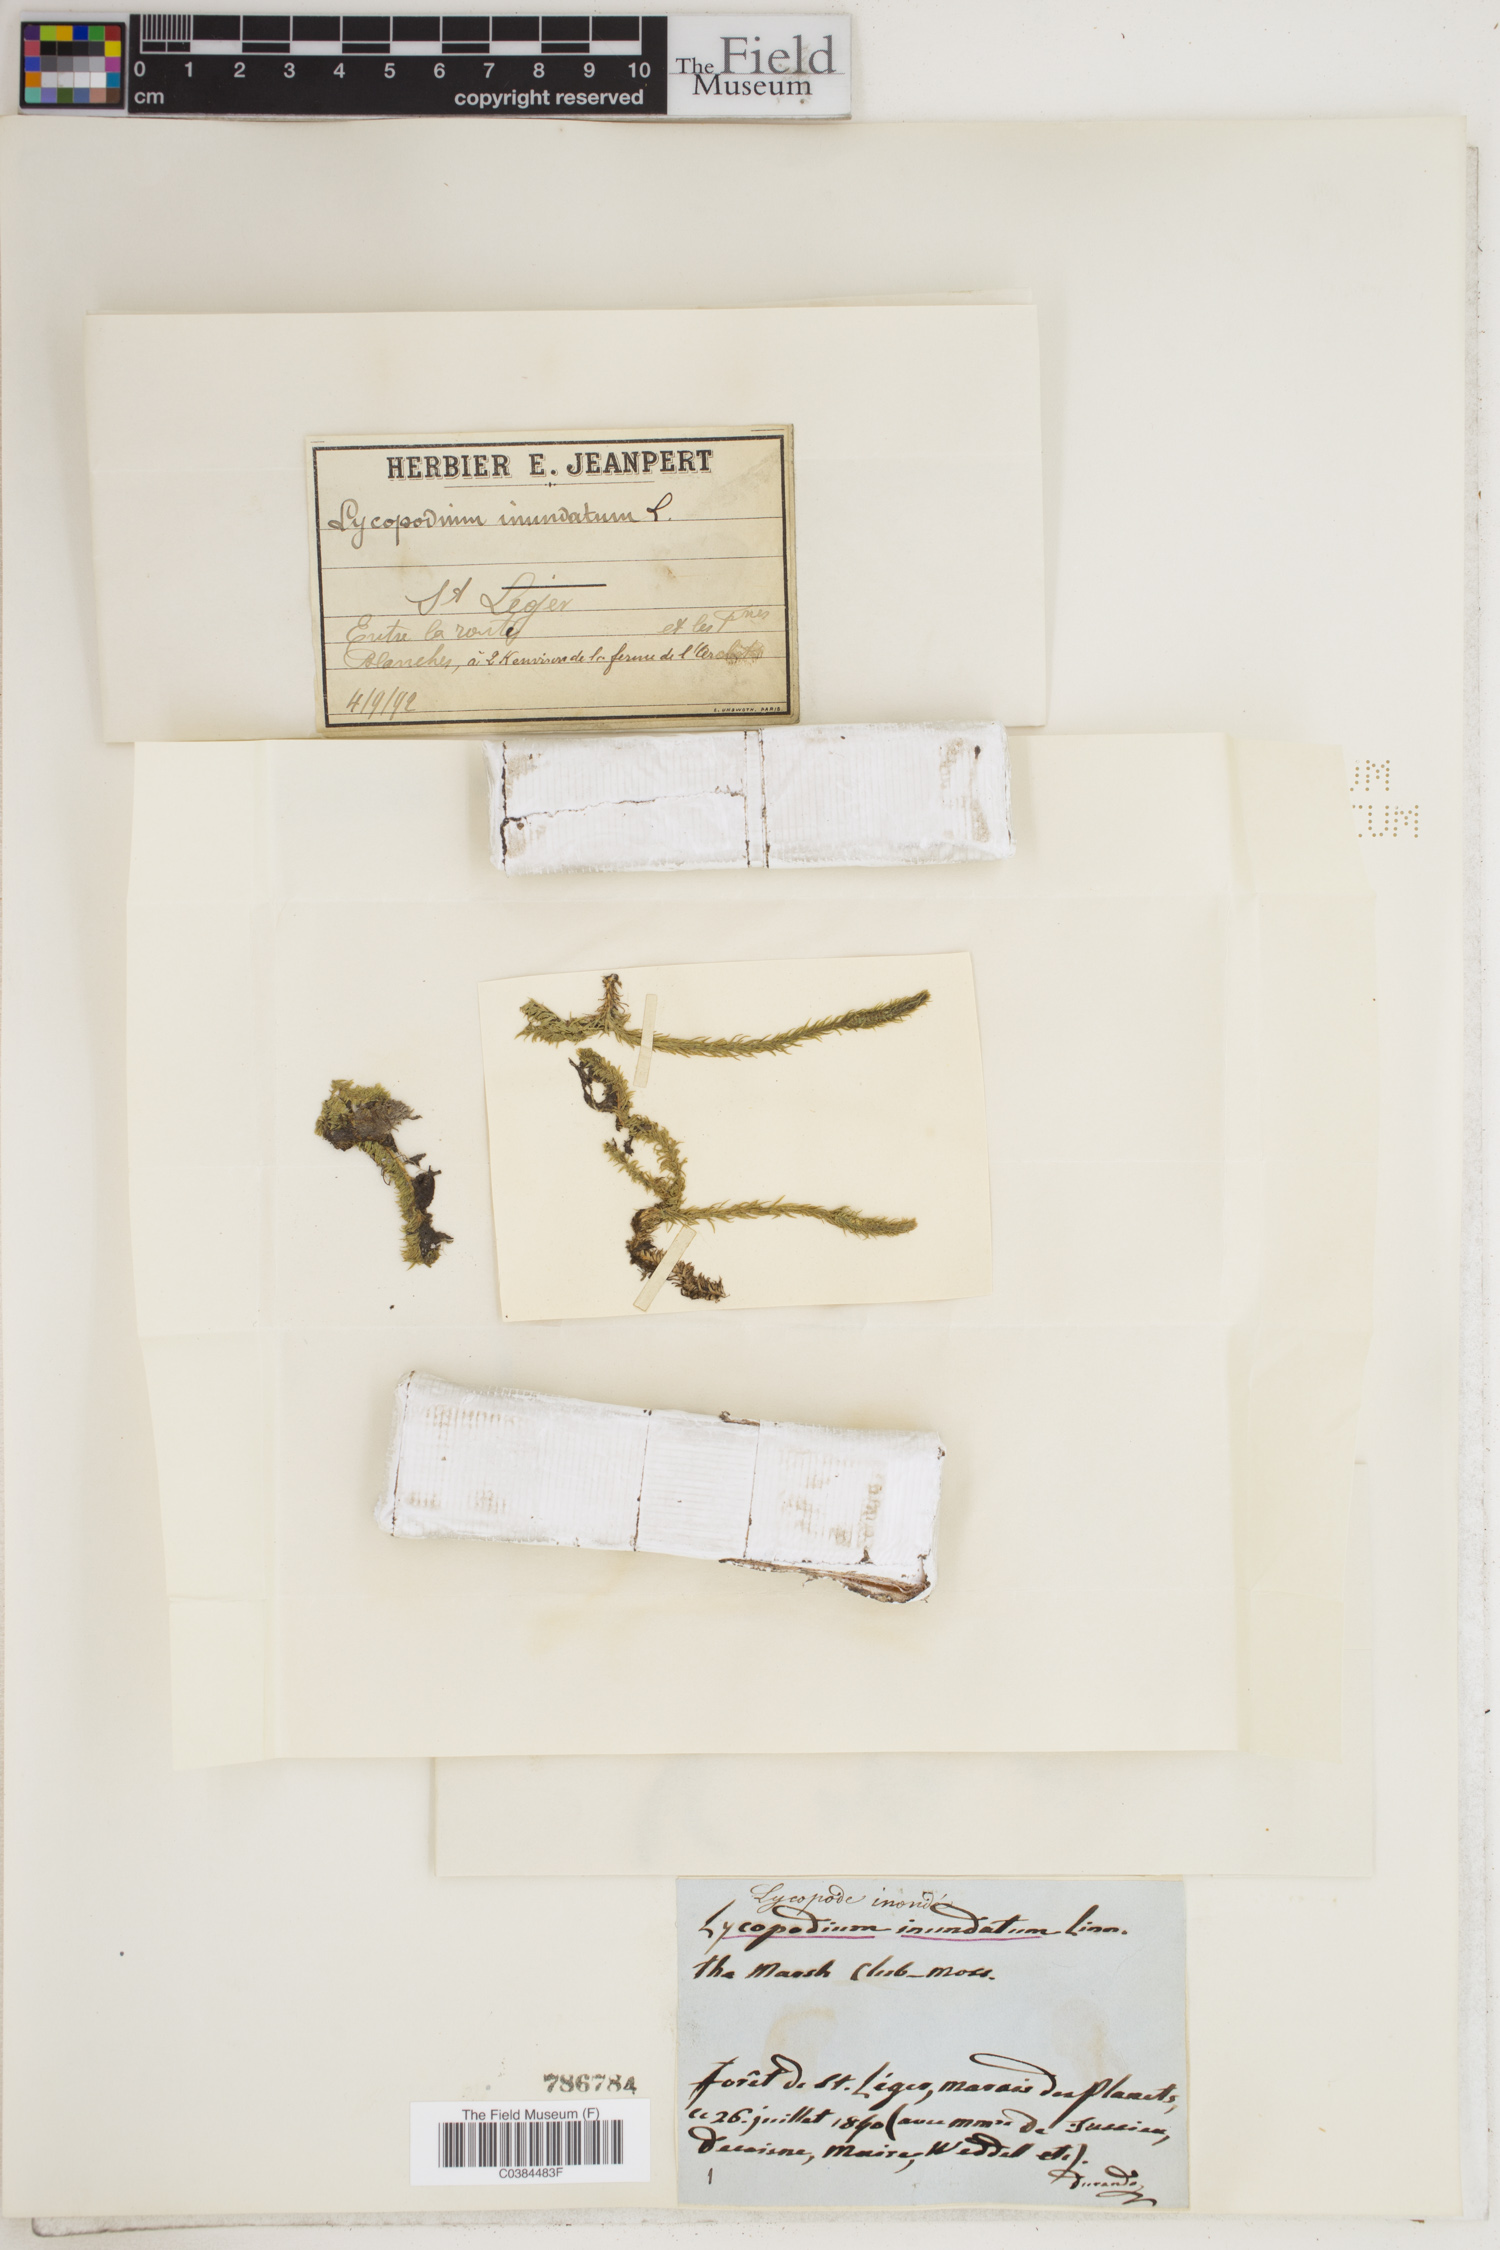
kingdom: Plantae
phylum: Tracheophyta
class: Lycopodiopsida
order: Lycopodiales
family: Lycopodiaceae
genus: Lycopodiella
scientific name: Lycopodiella inundata
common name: Marsh clubmoss
